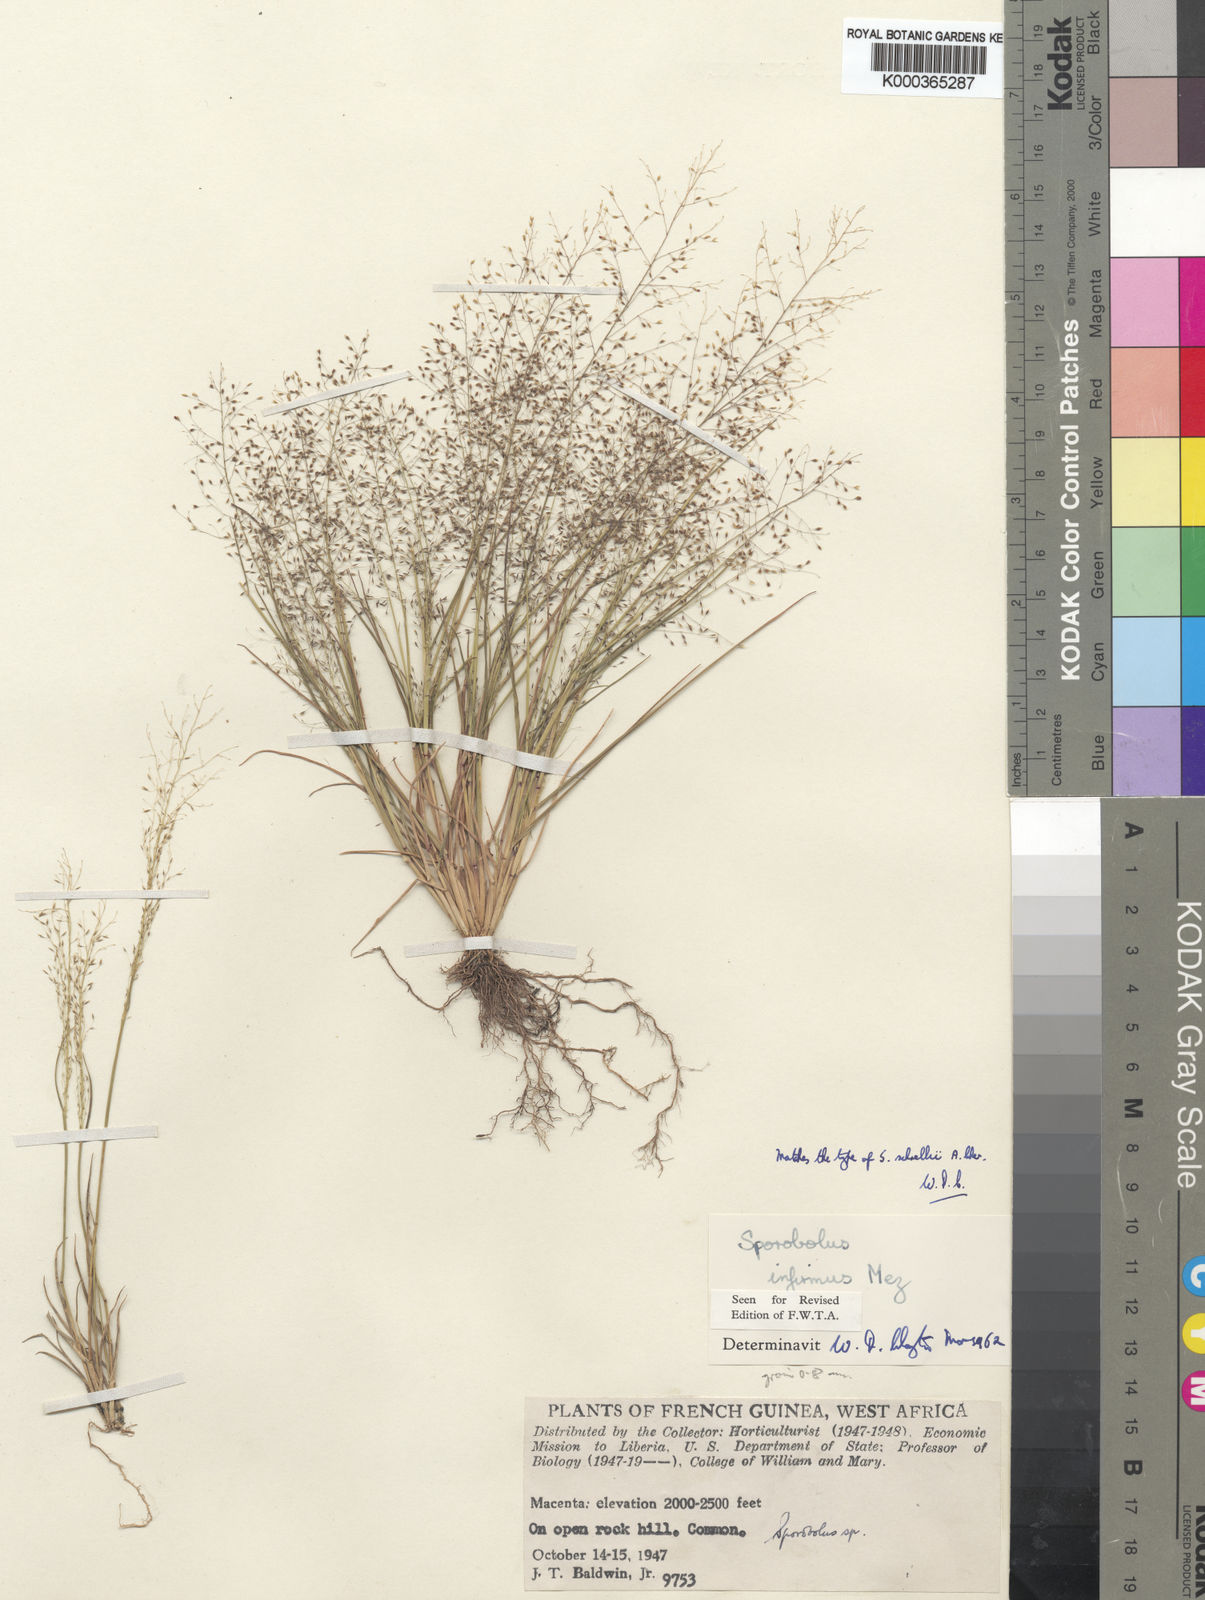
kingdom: Plantae
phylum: Tracheophyta
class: Liliopsida
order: Poales
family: Poaceae
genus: Sporobolus
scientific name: Sporobolus infirmus
